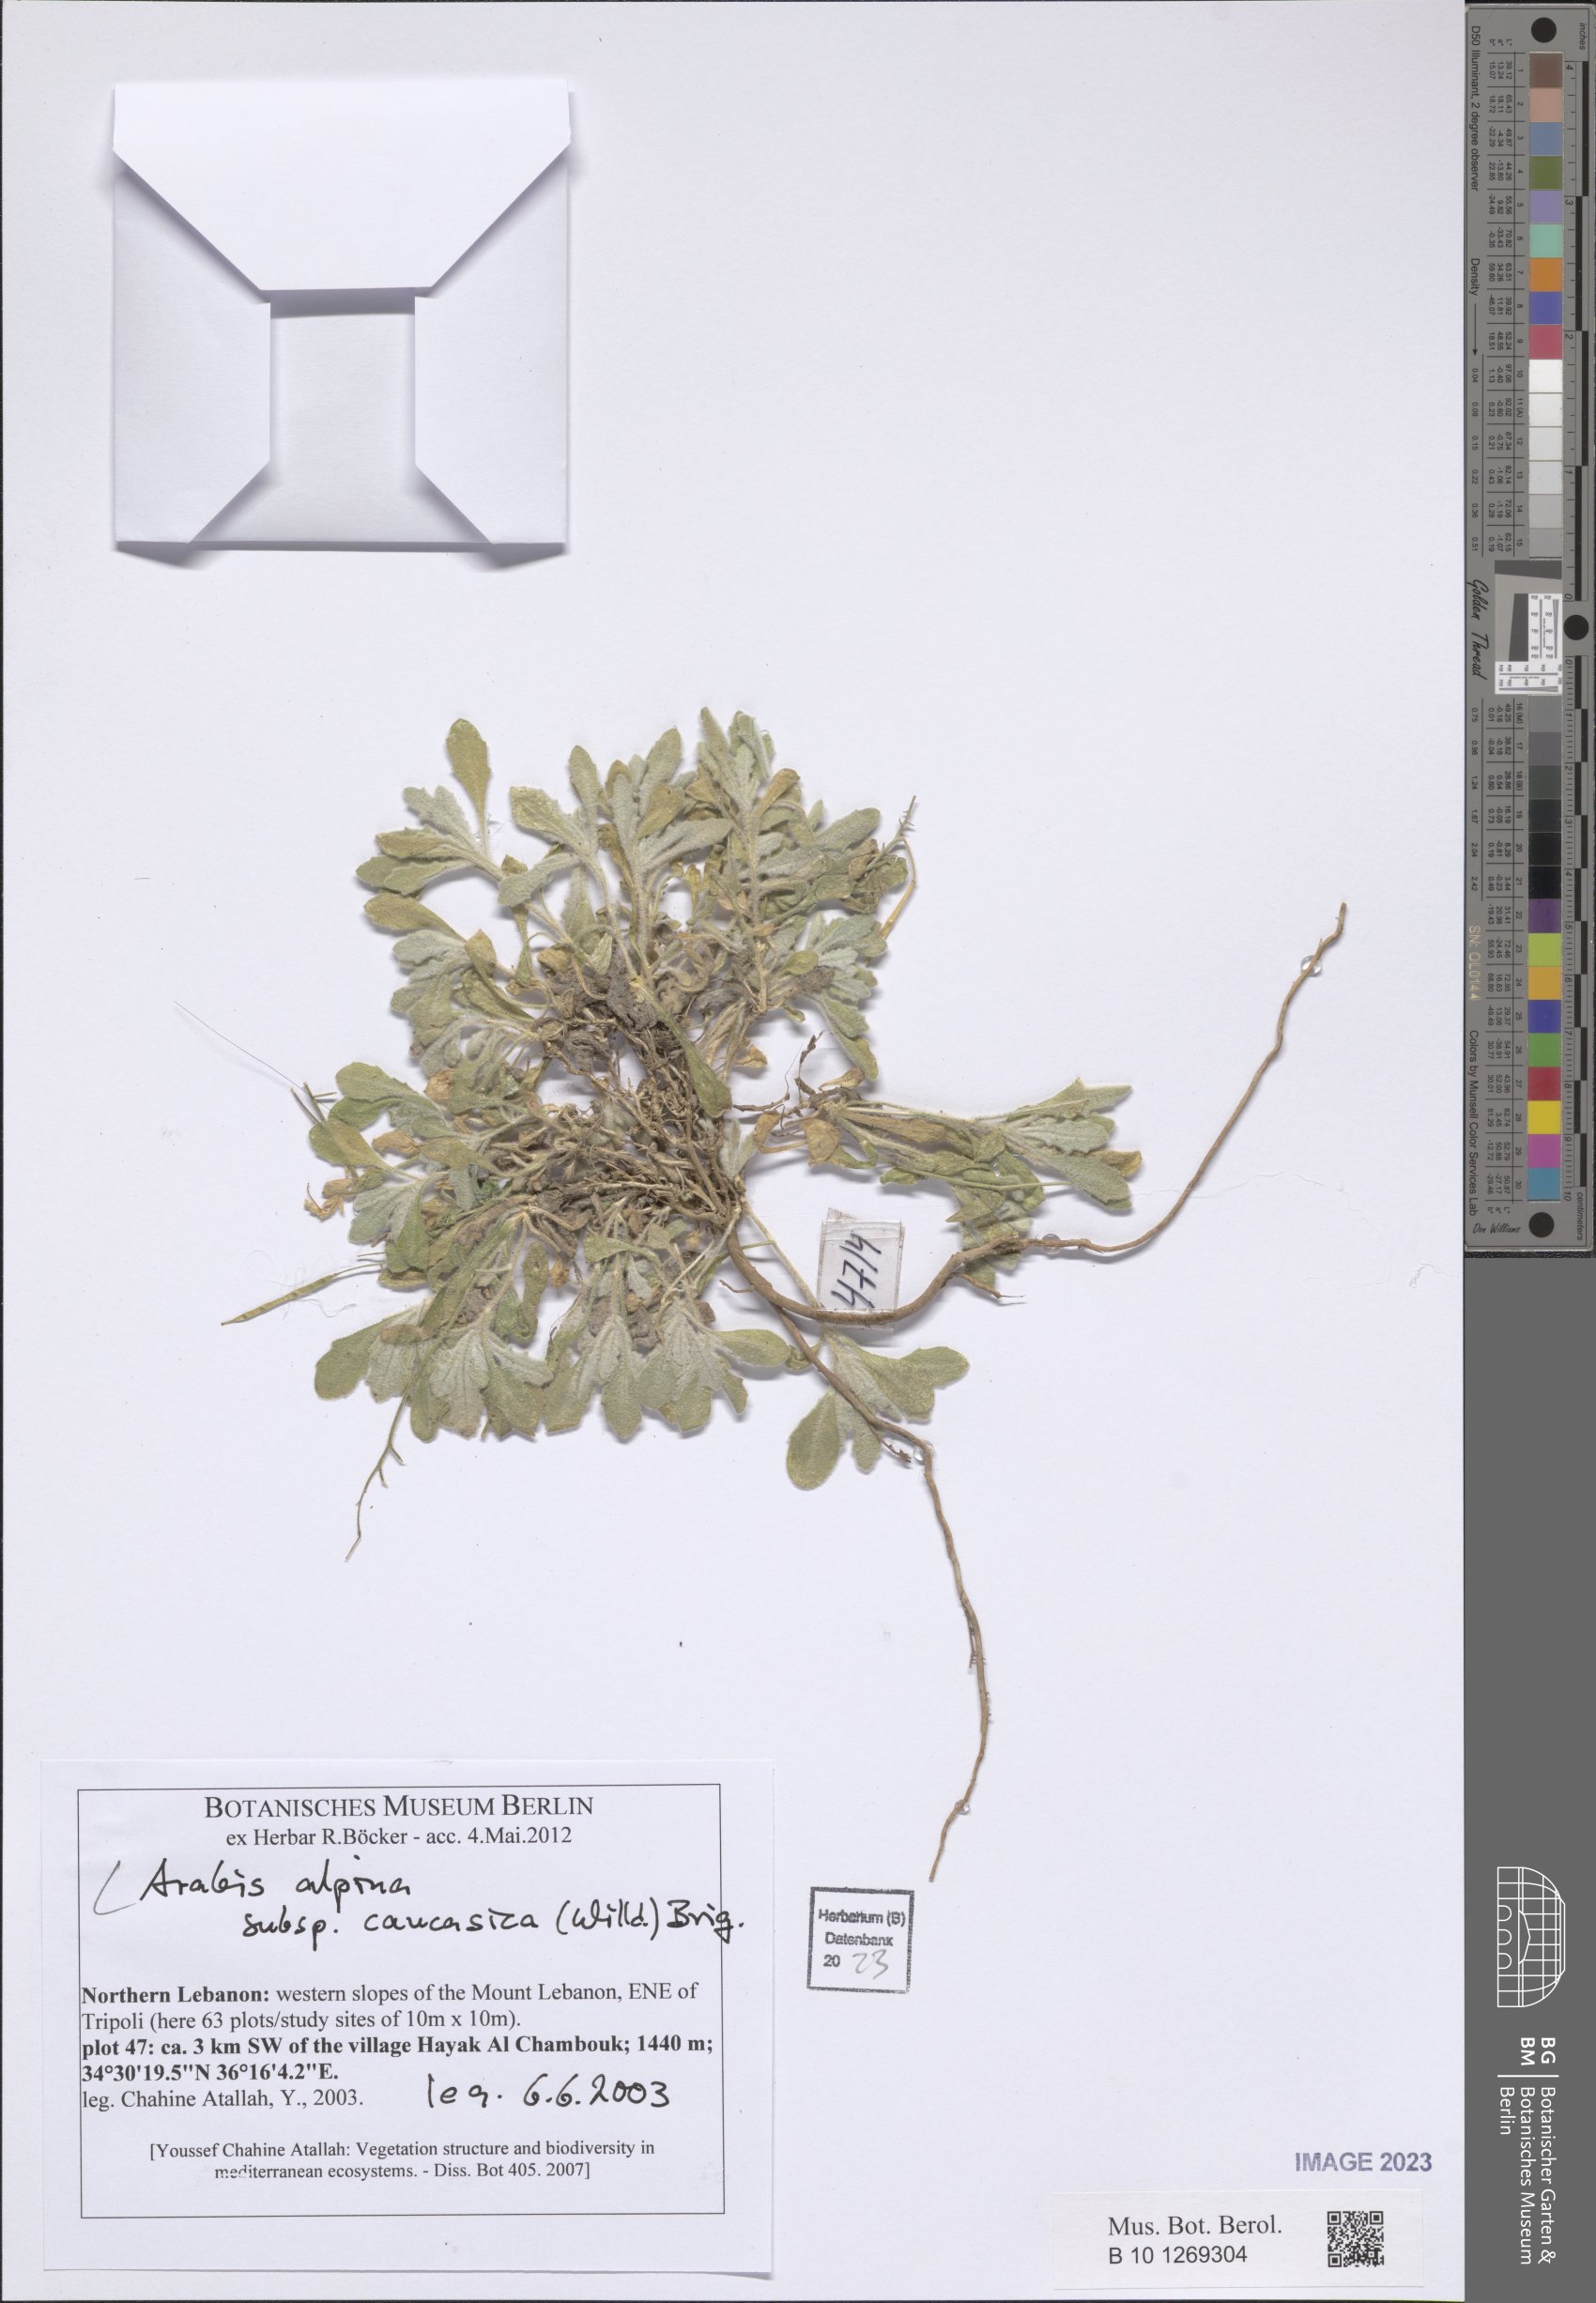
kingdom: Plantae
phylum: Tracheophyta
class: Magnoliopsida
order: Brassicales
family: Brassicaceae
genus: Arabis
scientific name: Arabis caucasica
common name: Gray rockcress
